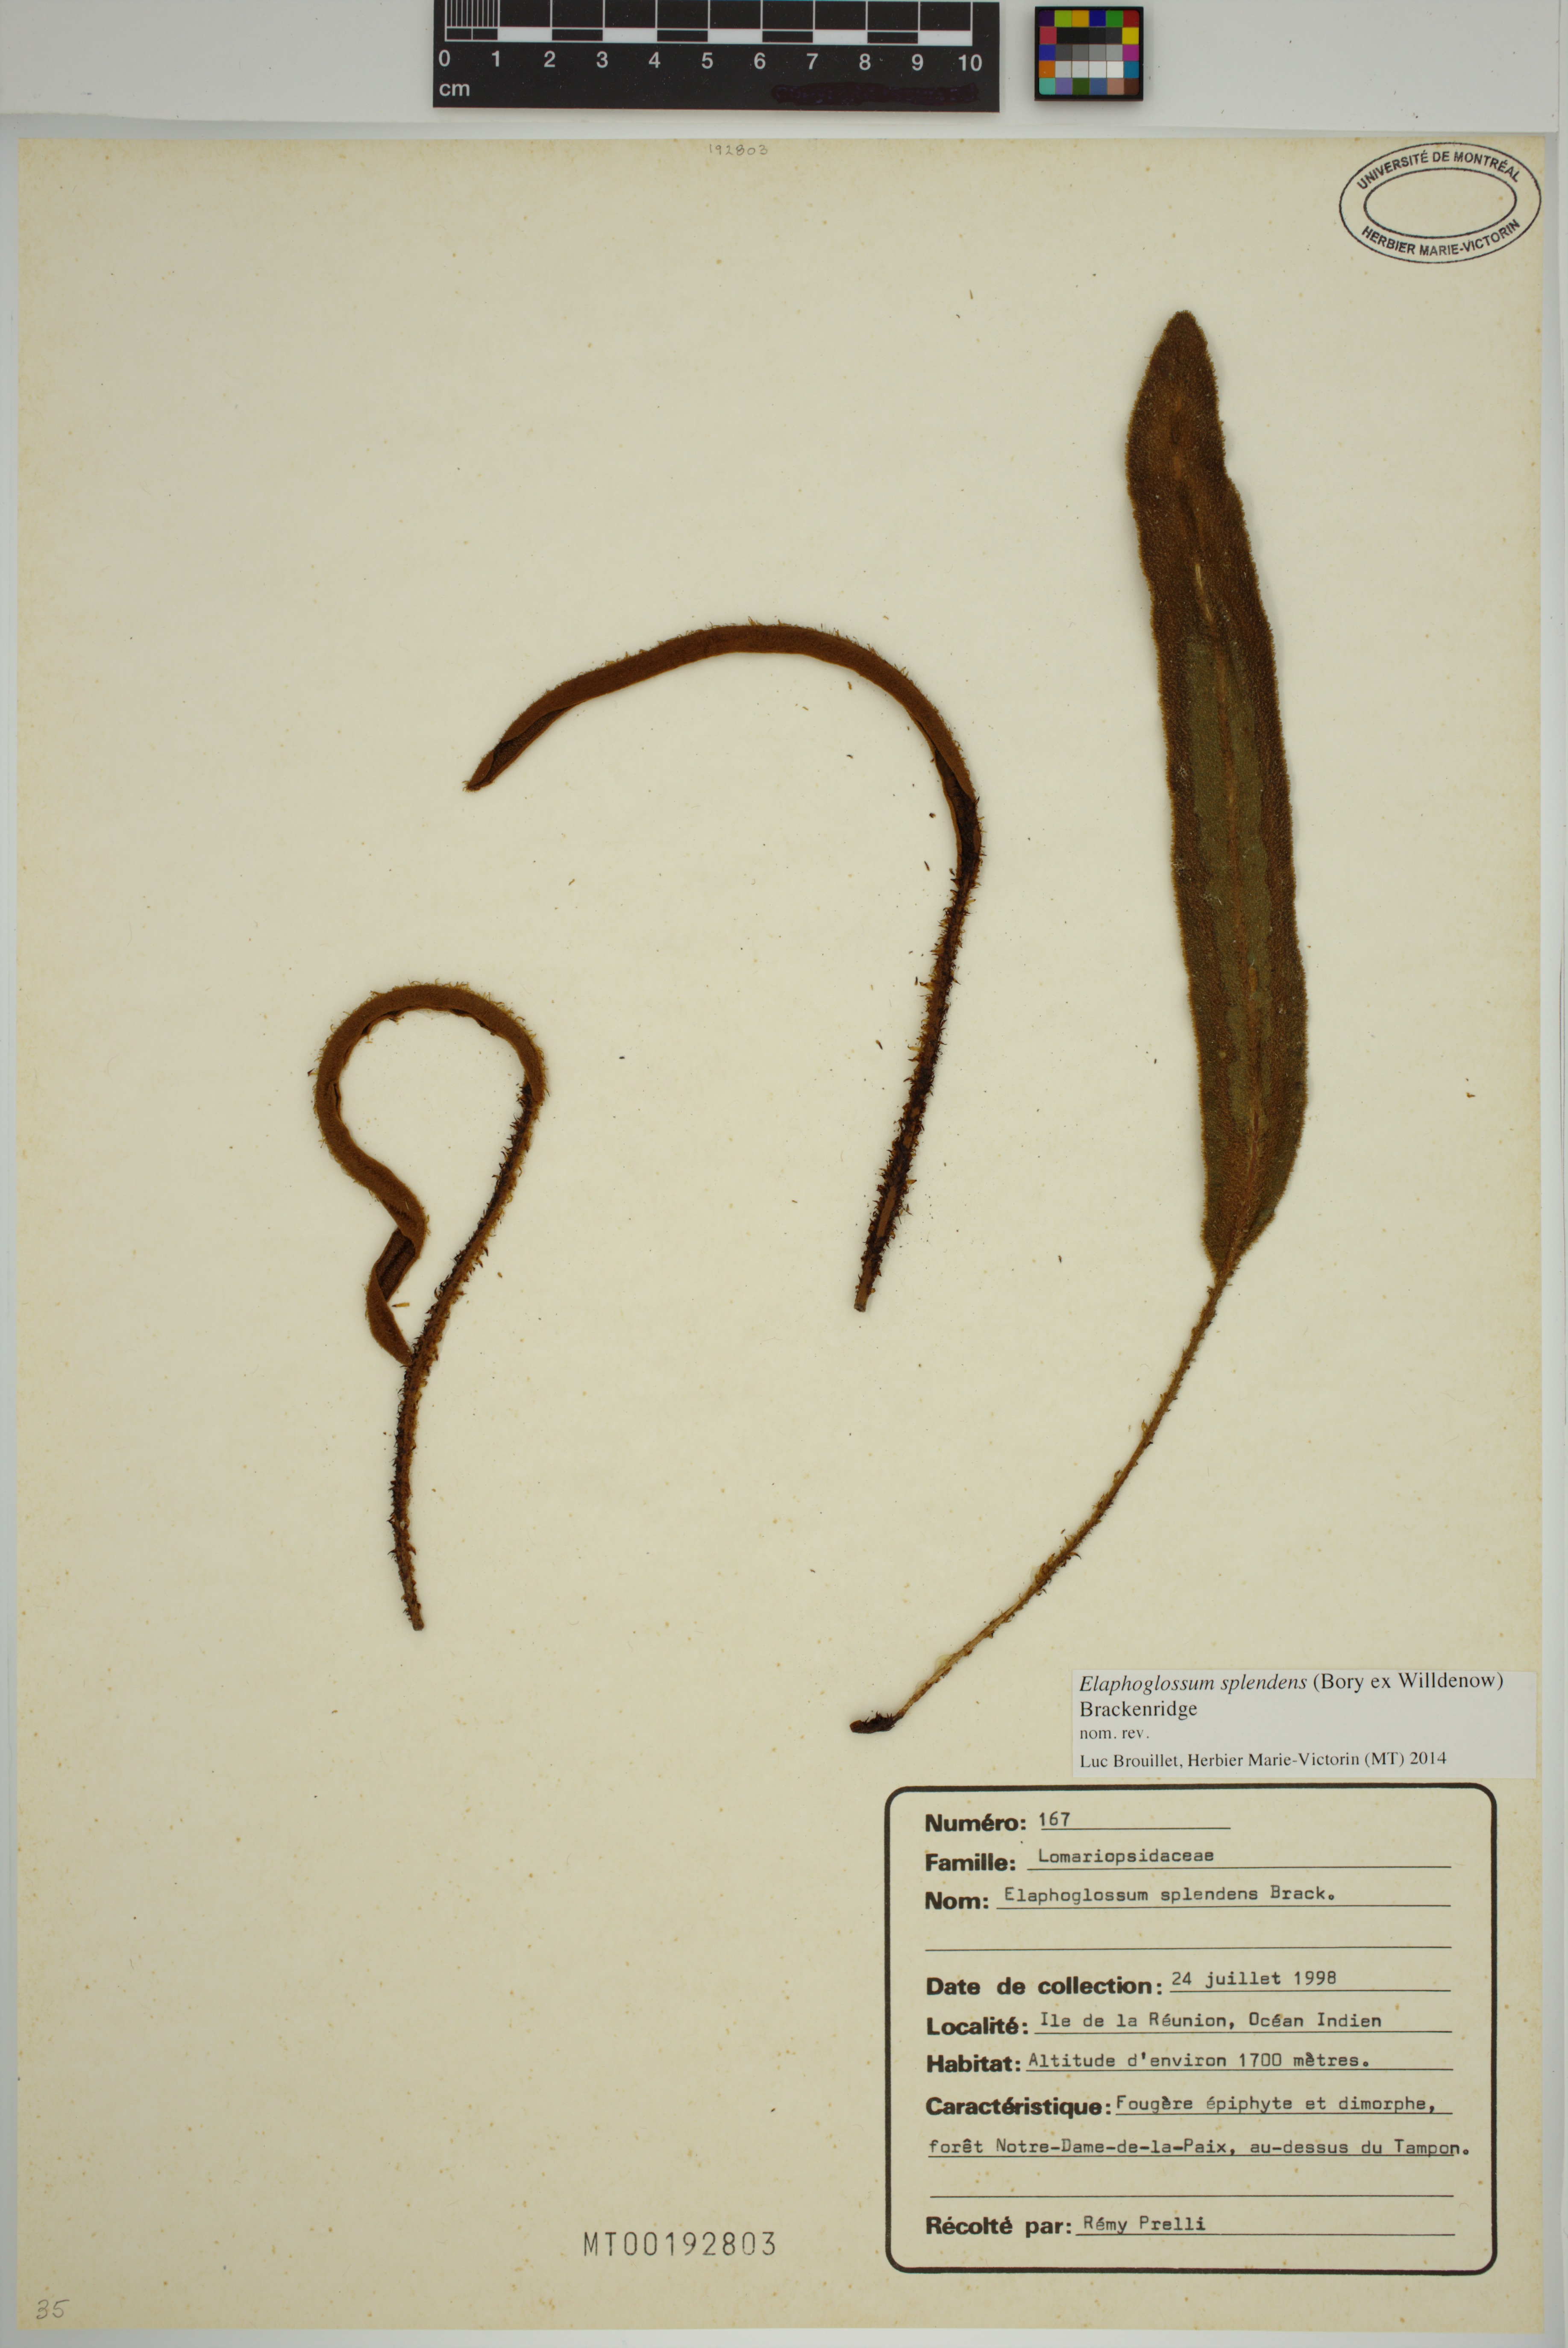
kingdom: Plantae
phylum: Tracheophyta
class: Polypodiopsida
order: Polypodiales
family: Dryopteridaceae
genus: Elaphoglossum
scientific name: Elaphoglossum splendens
